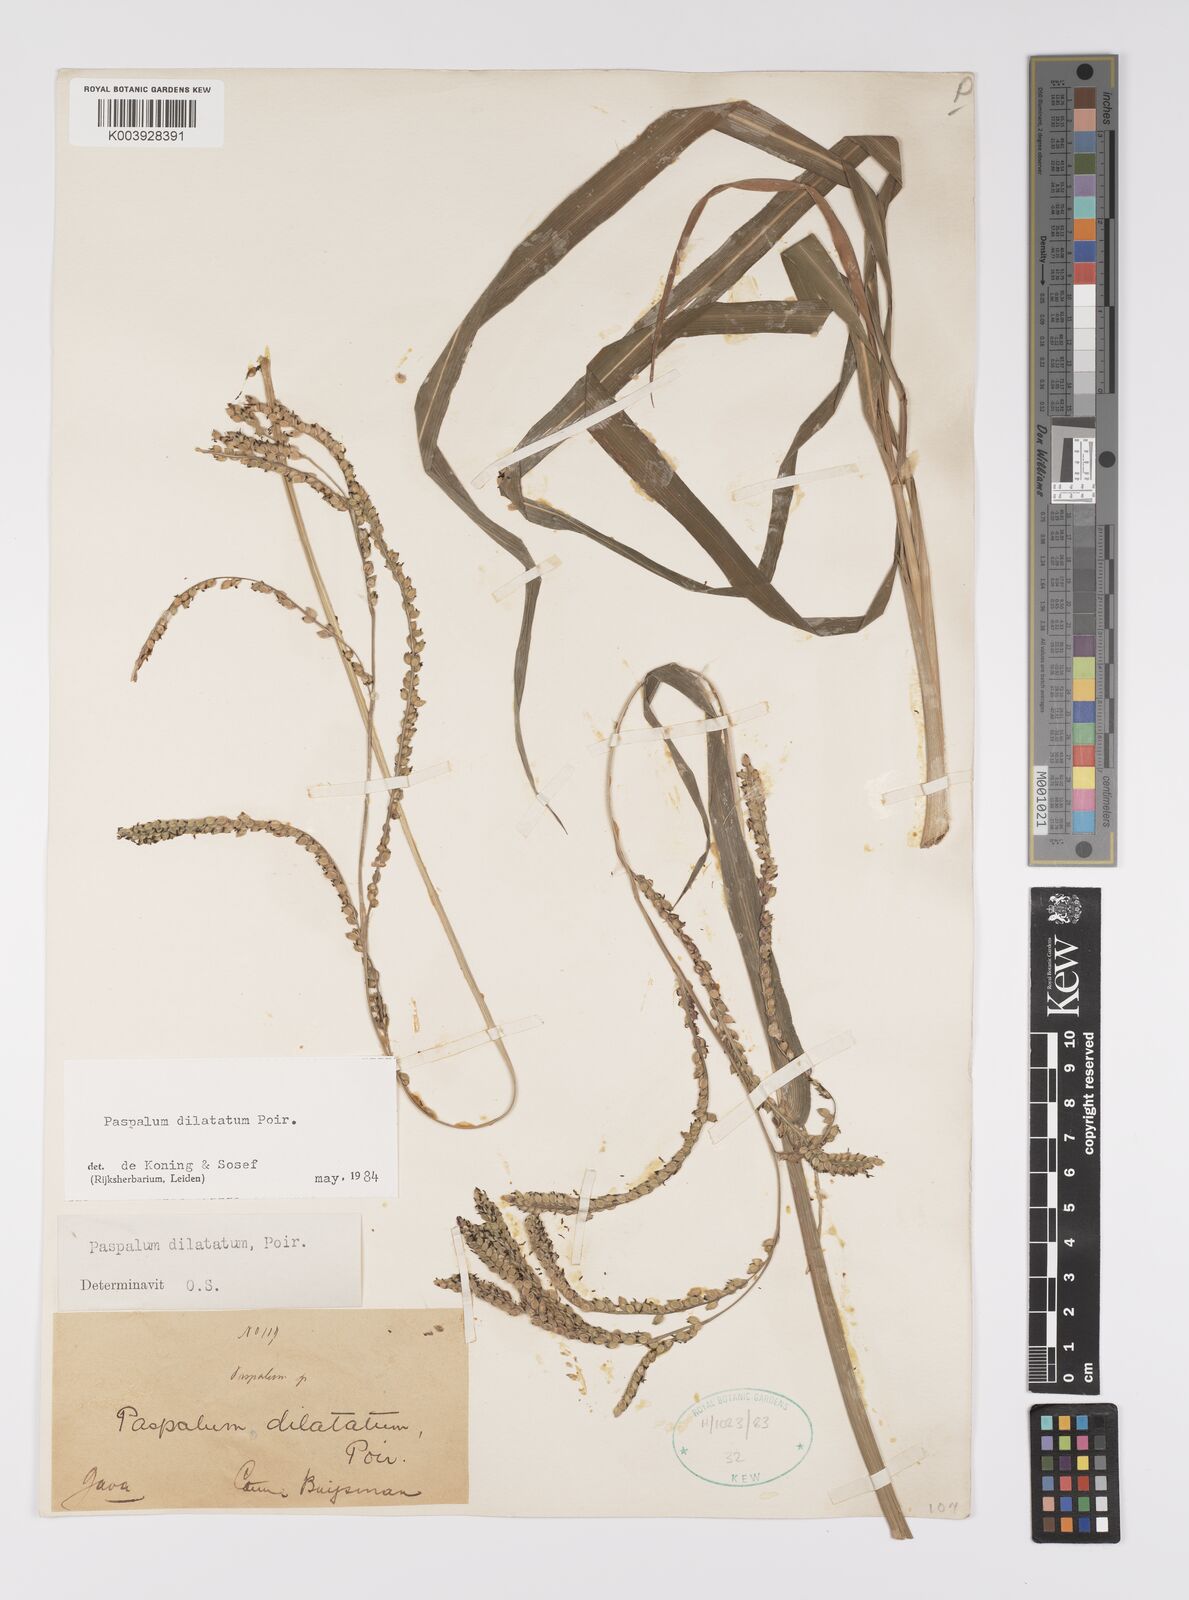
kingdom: Plantae
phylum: Tracheophyta
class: Liliopsida
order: Poales
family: Poaceae
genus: Paspalum
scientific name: Paspalum dilatatum
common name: Dallisgrass
